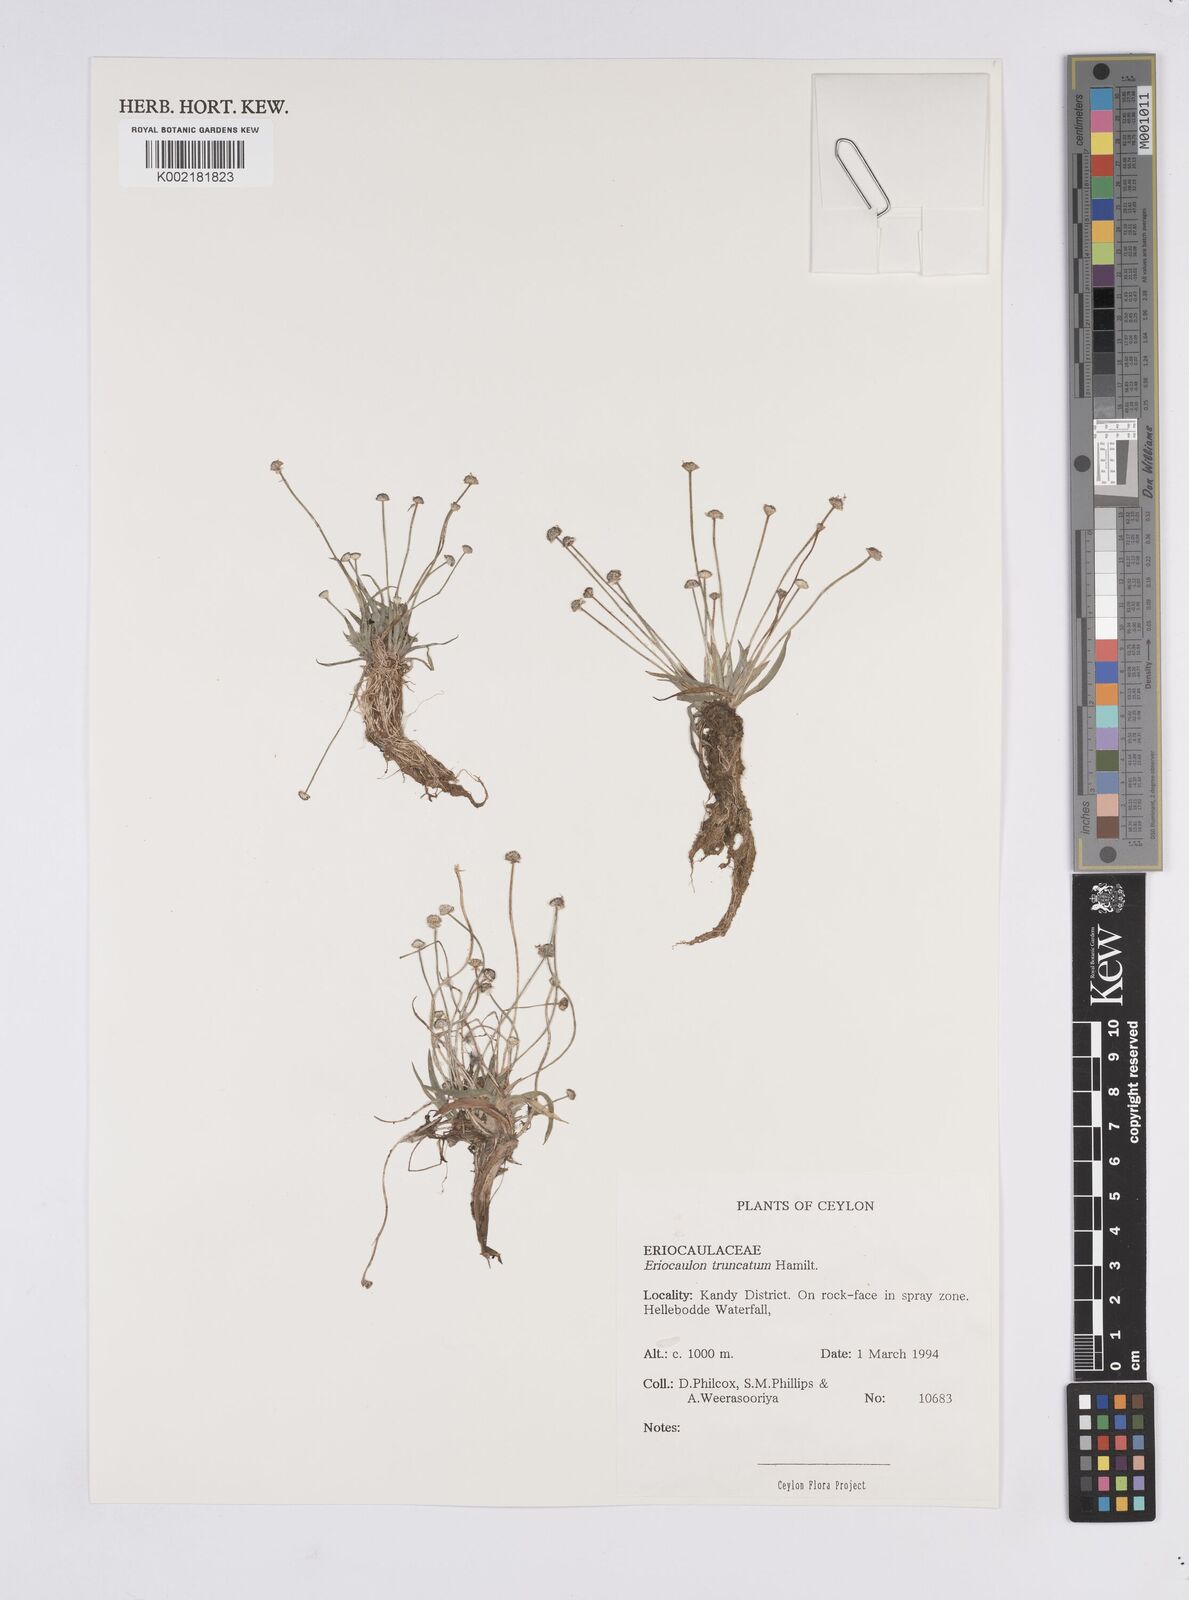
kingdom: Plantae
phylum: Tracheophyta
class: Liliopsida
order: Poales
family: Eriocaulaceae
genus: Eriocaulon
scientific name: Eriocaulon truncatum
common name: Short pipe-wort
